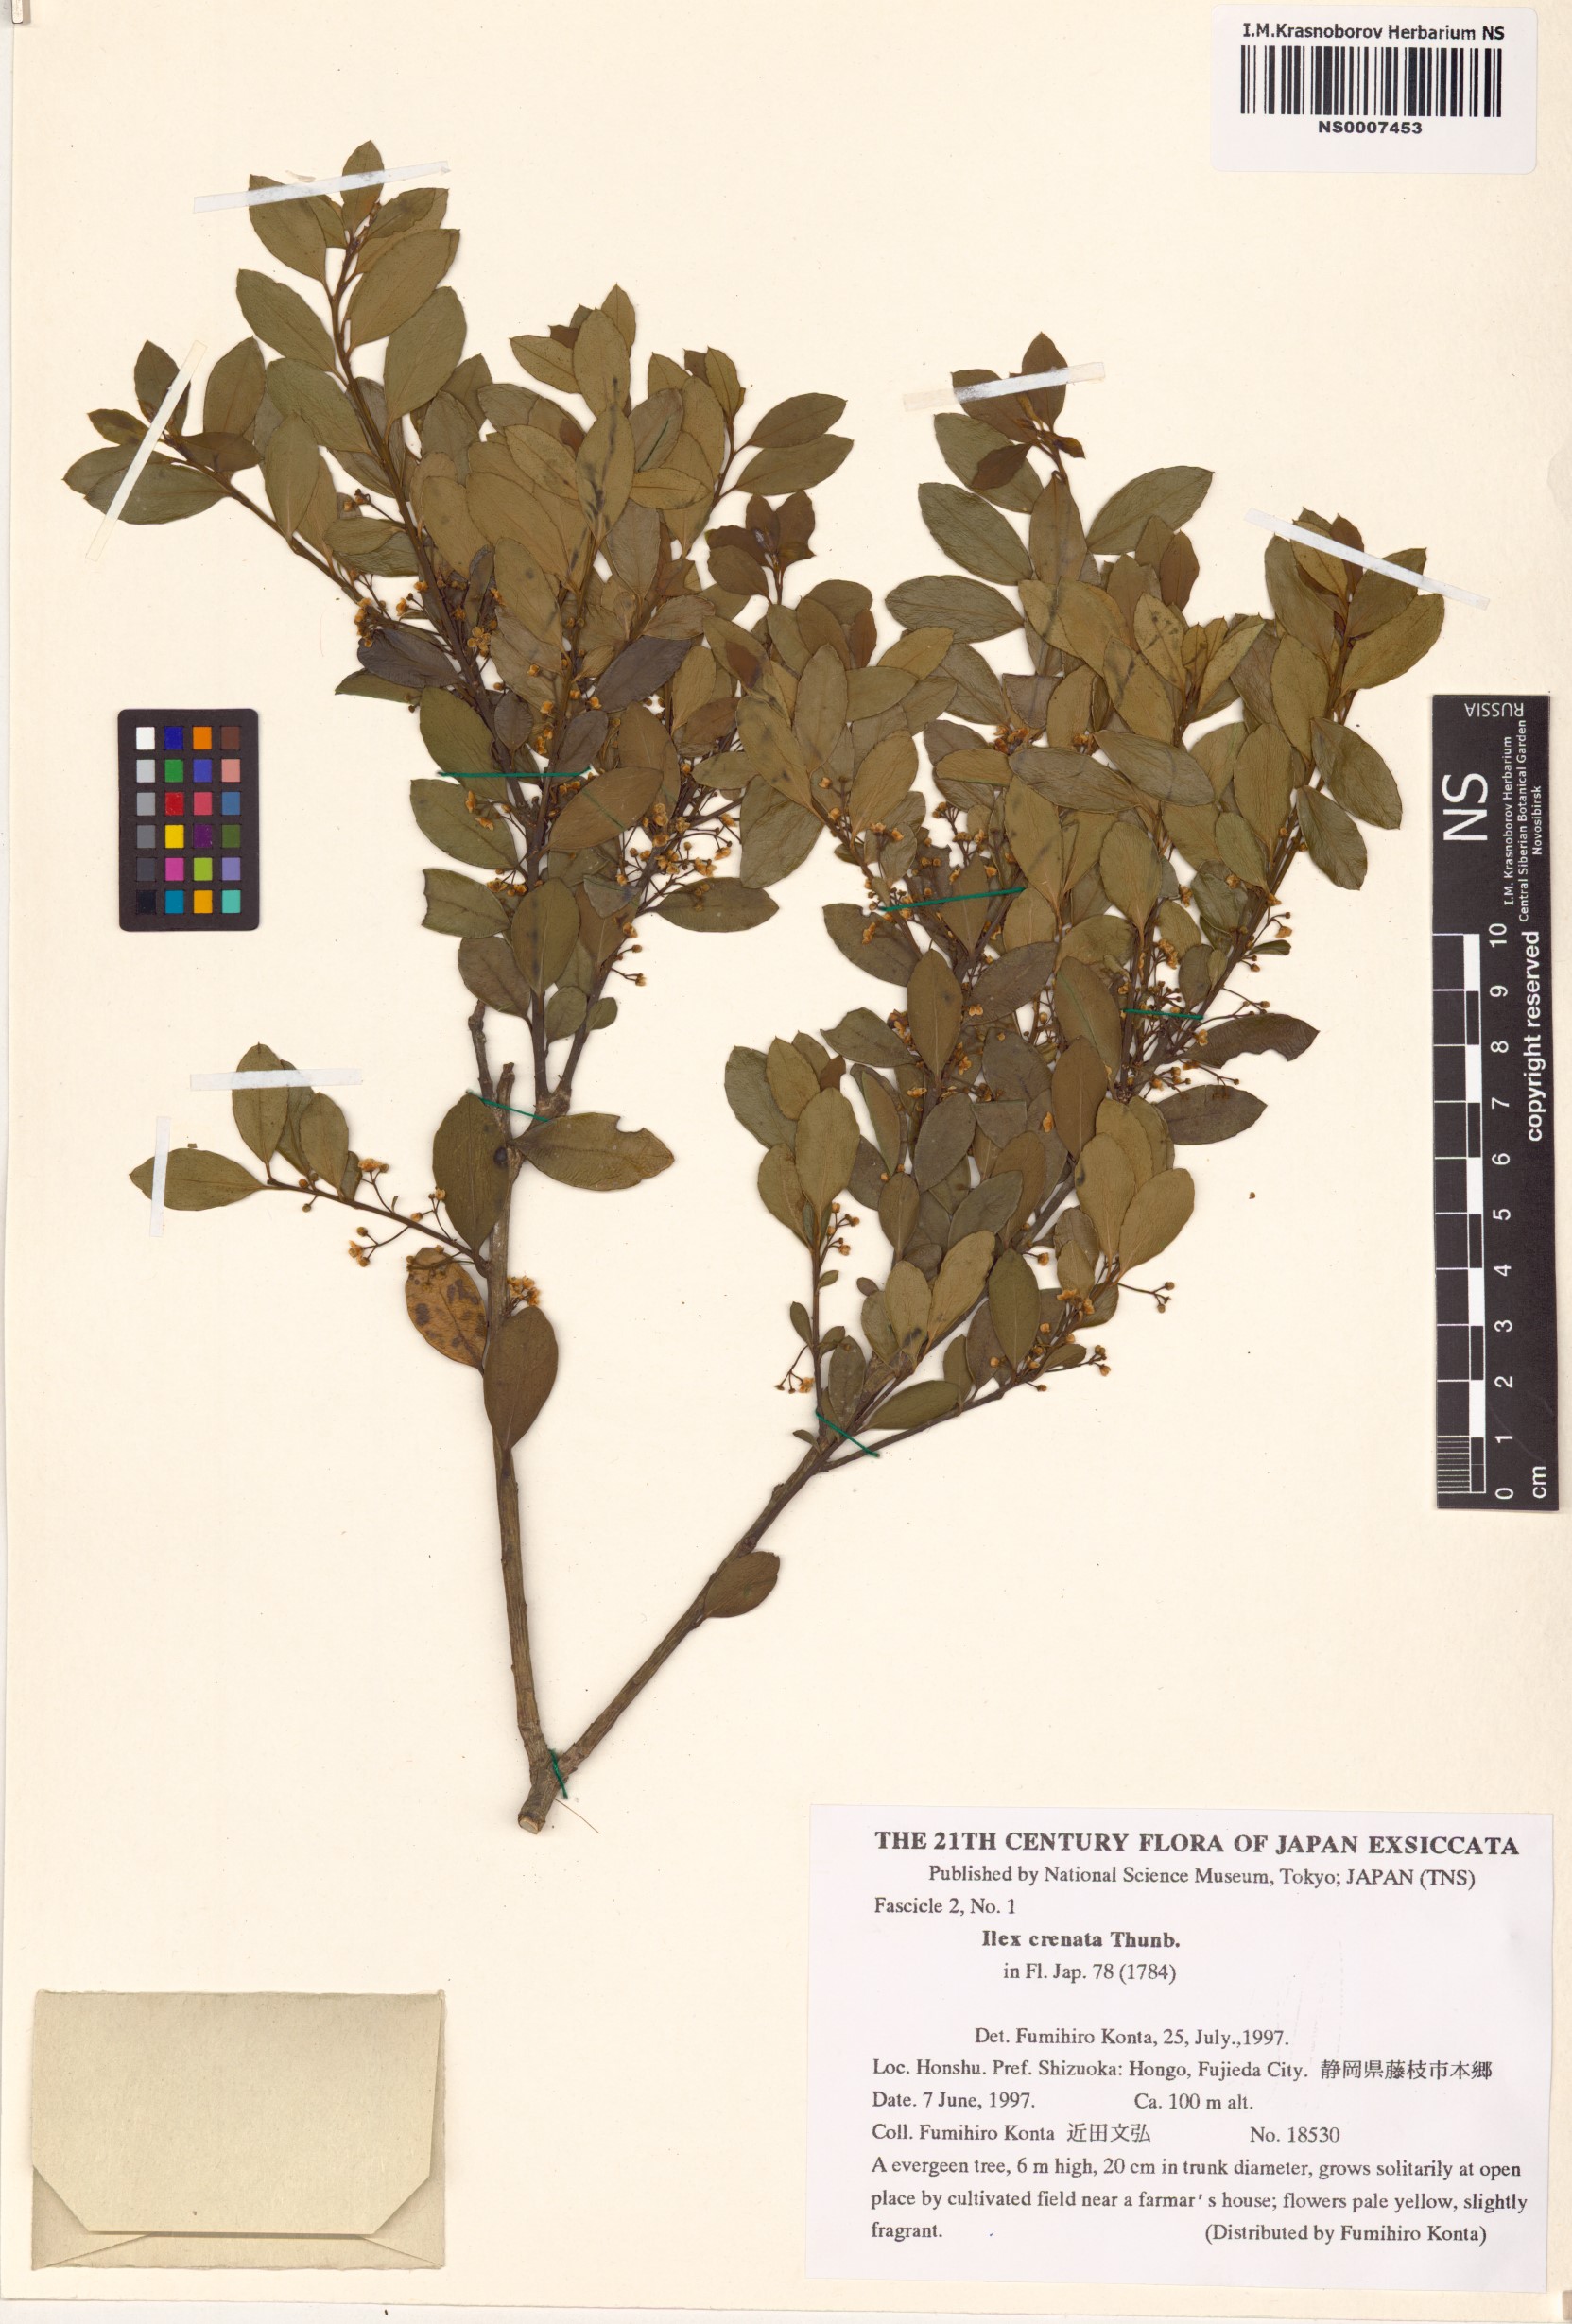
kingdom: Plantae
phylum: Tracheophyta
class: Magnoliopsida
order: Aquifoliales
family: Aquifoliaceae
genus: Ilex
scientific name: Ilex crenata
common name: Japanese holly
